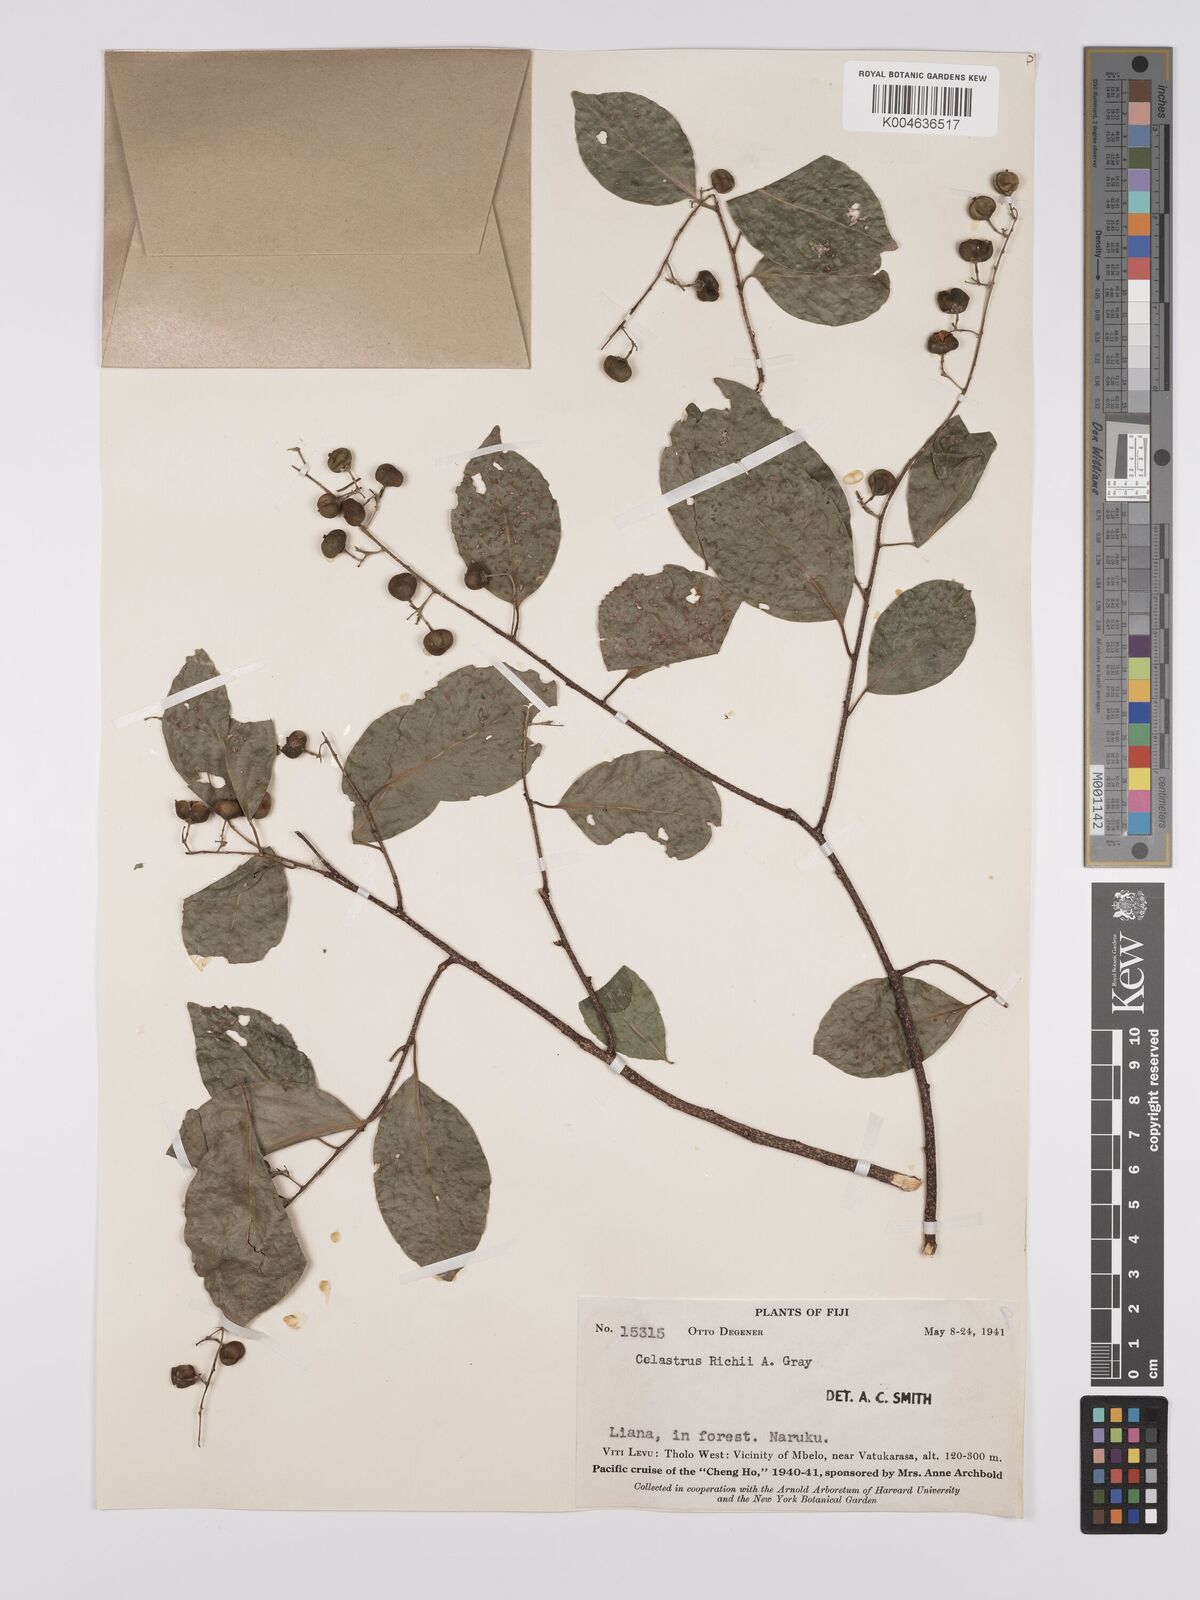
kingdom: Plantae
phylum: Tracheophyta
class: Magnoliopsida
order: Celastrales
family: Celastraceae
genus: Celastrus
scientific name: Celastrus richii
